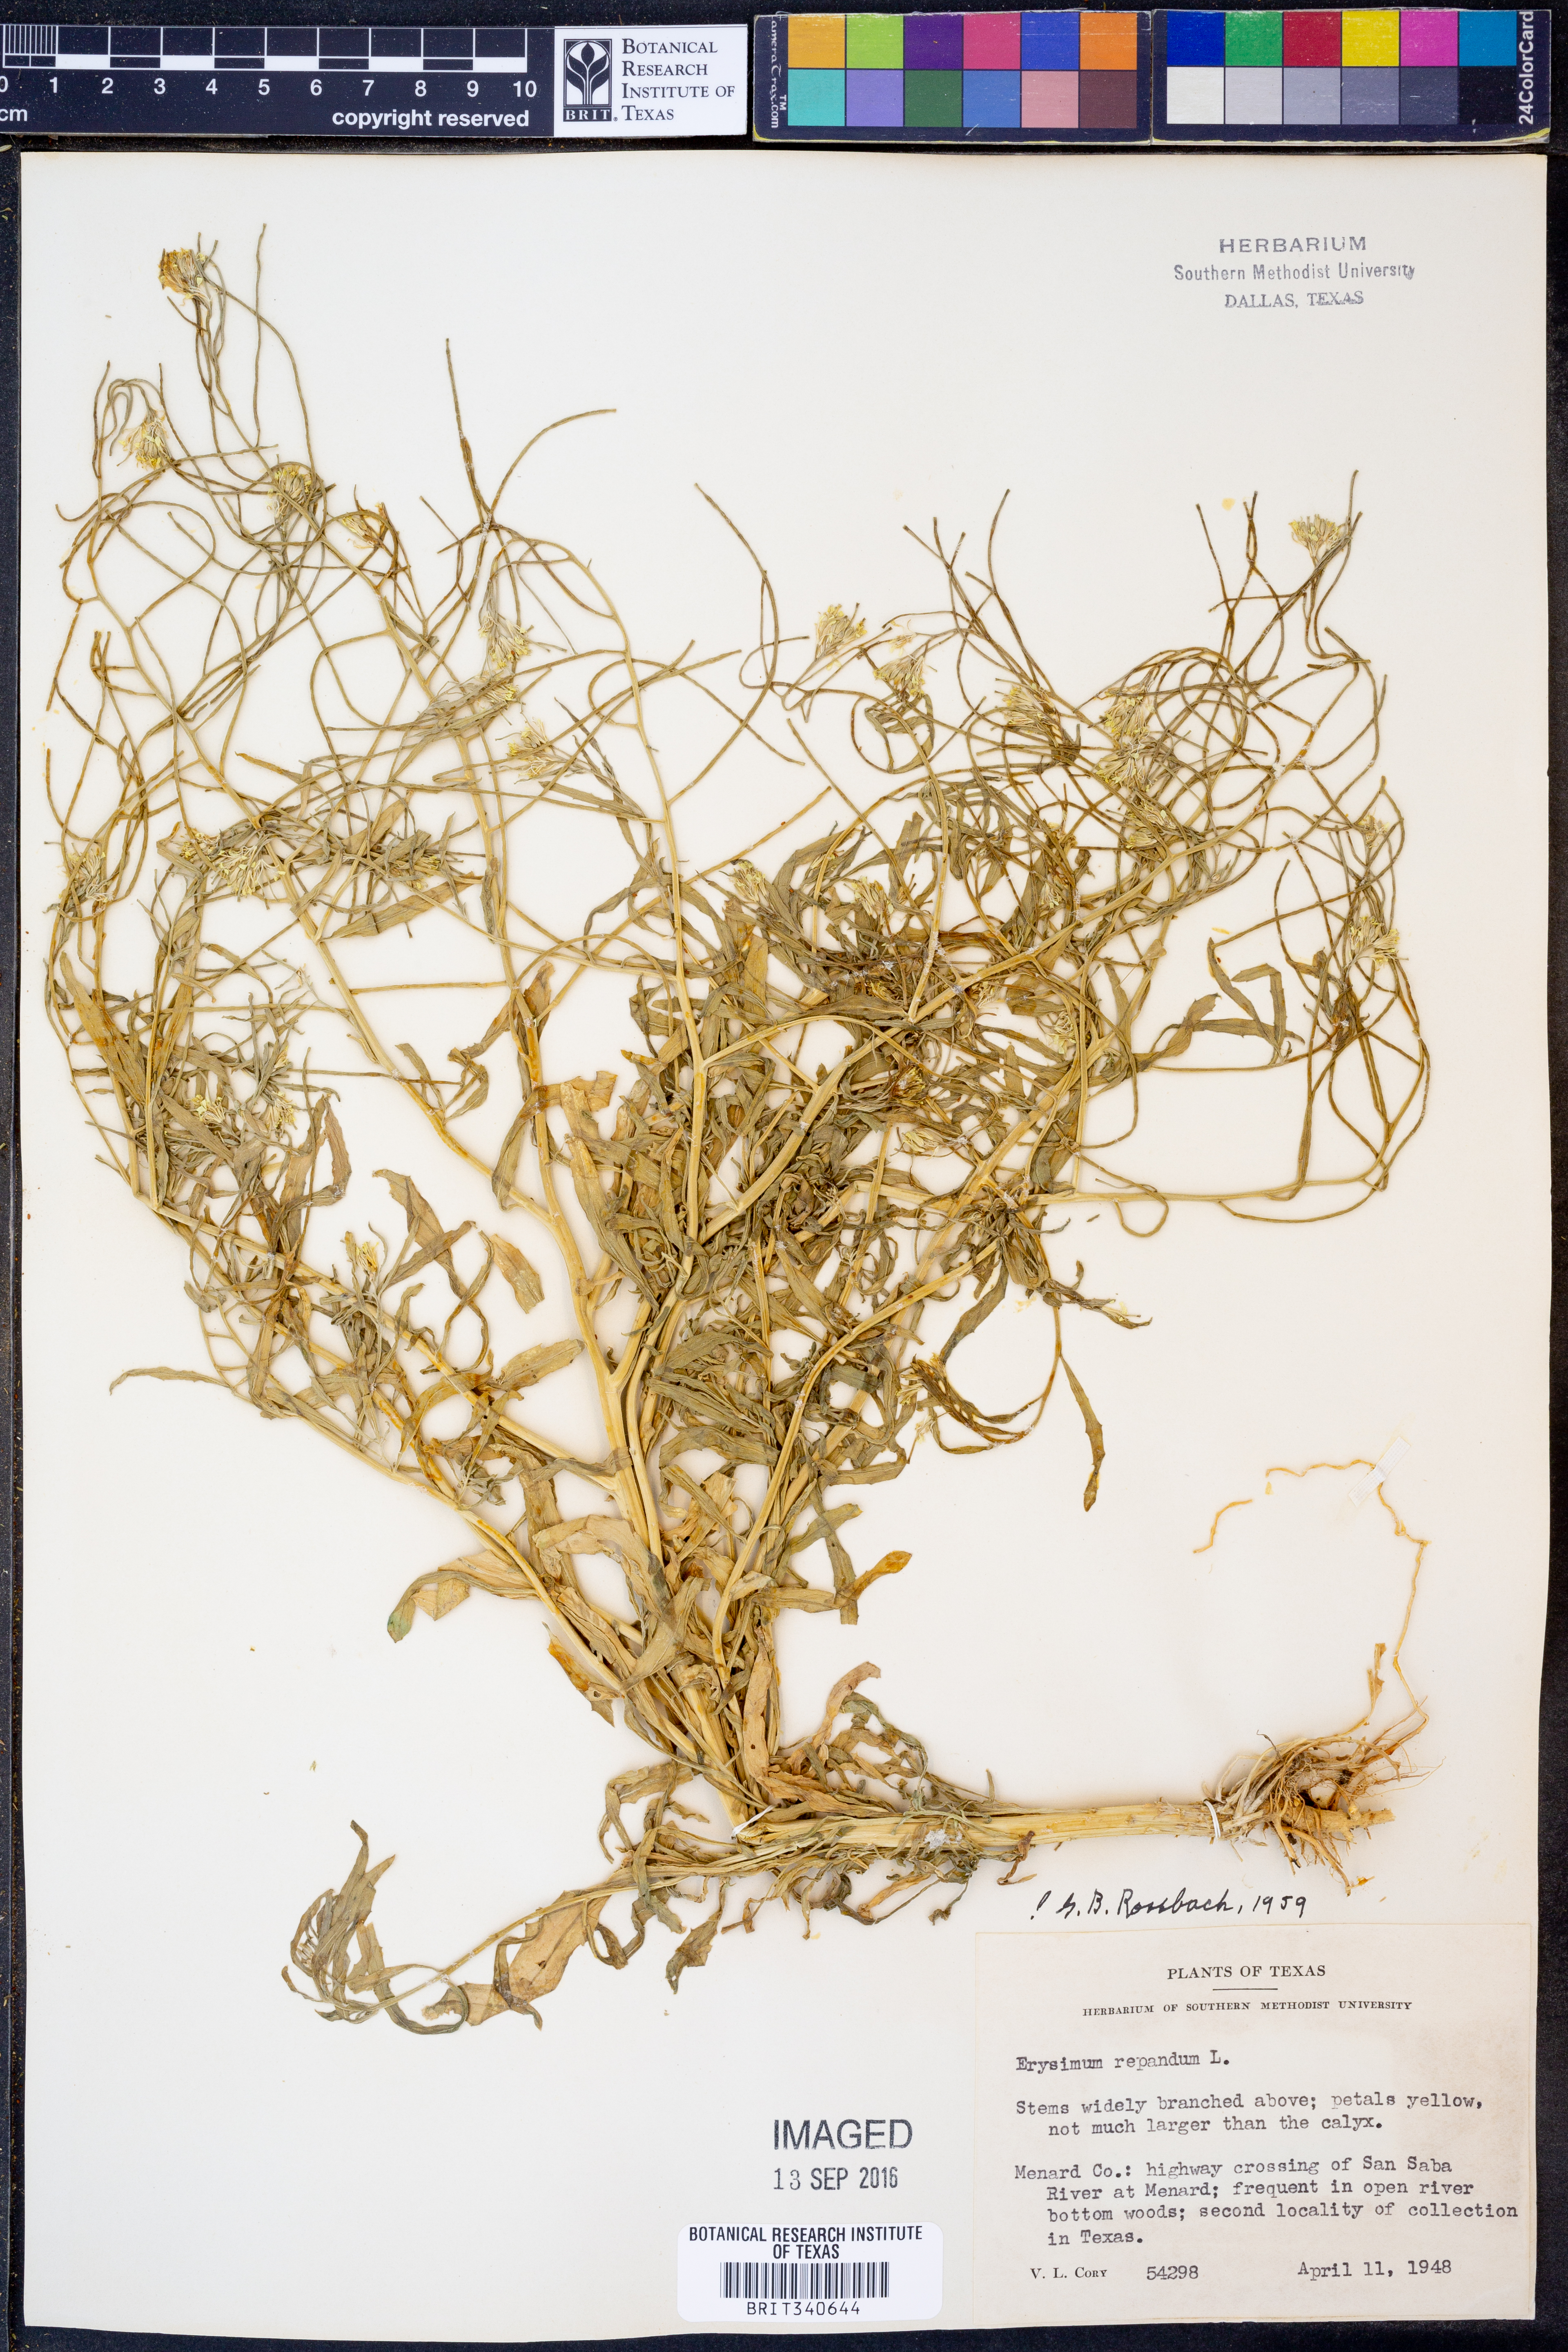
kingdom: Plantae
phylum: Tracheophyta
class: Magnoliopsida
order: Brassicales
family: Brassicaceae
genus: Erysimum
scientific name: Erysimum repandum
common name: Spreading wallflower
